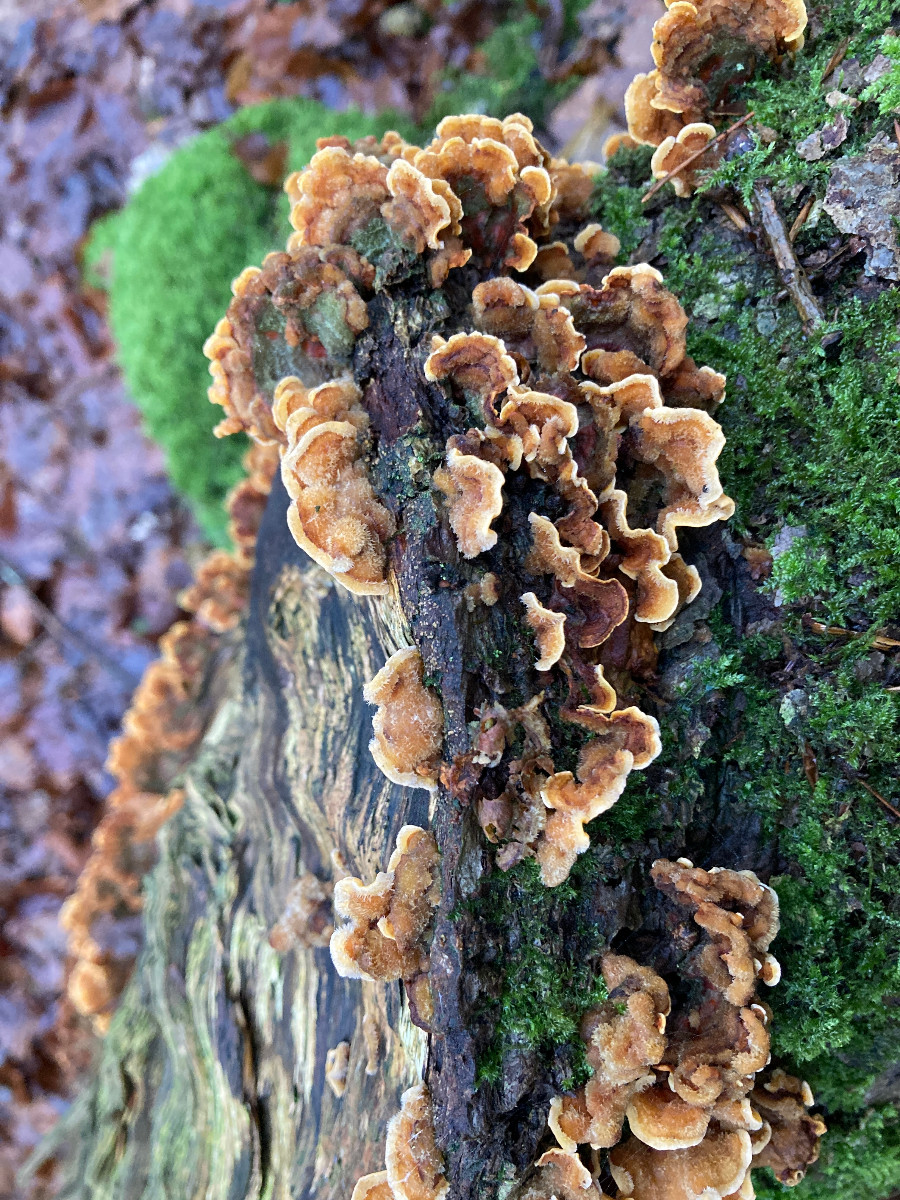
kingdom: Fungi
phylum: Basidiomycota
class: Agaricomycetes
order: Russulales
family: Stereaceae
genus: Stereum
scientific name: Stereum hirsutum
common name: håret lædersvamp
